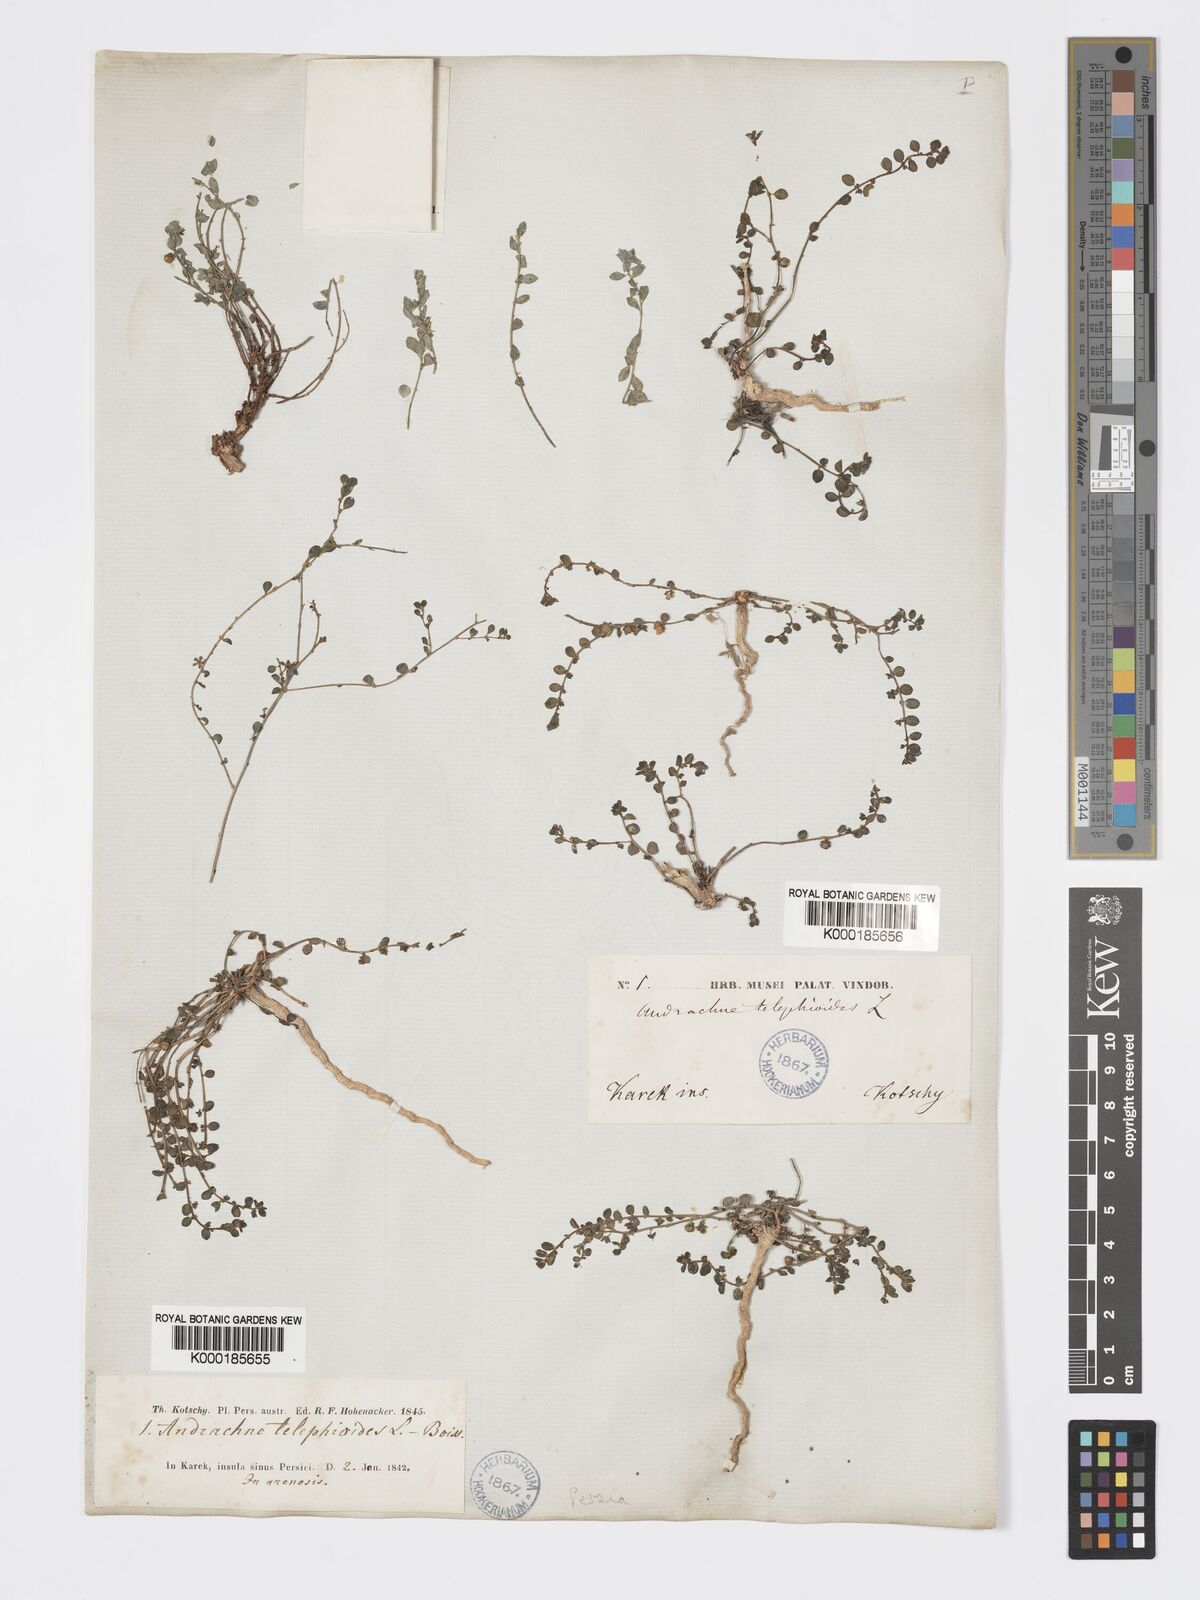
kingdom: Plantae
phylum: Tracheophyta
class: Magnoliopsida
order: Malpighiales
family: Phyllanthaceae
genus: Andrachne
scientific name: Andrachne telephioides
